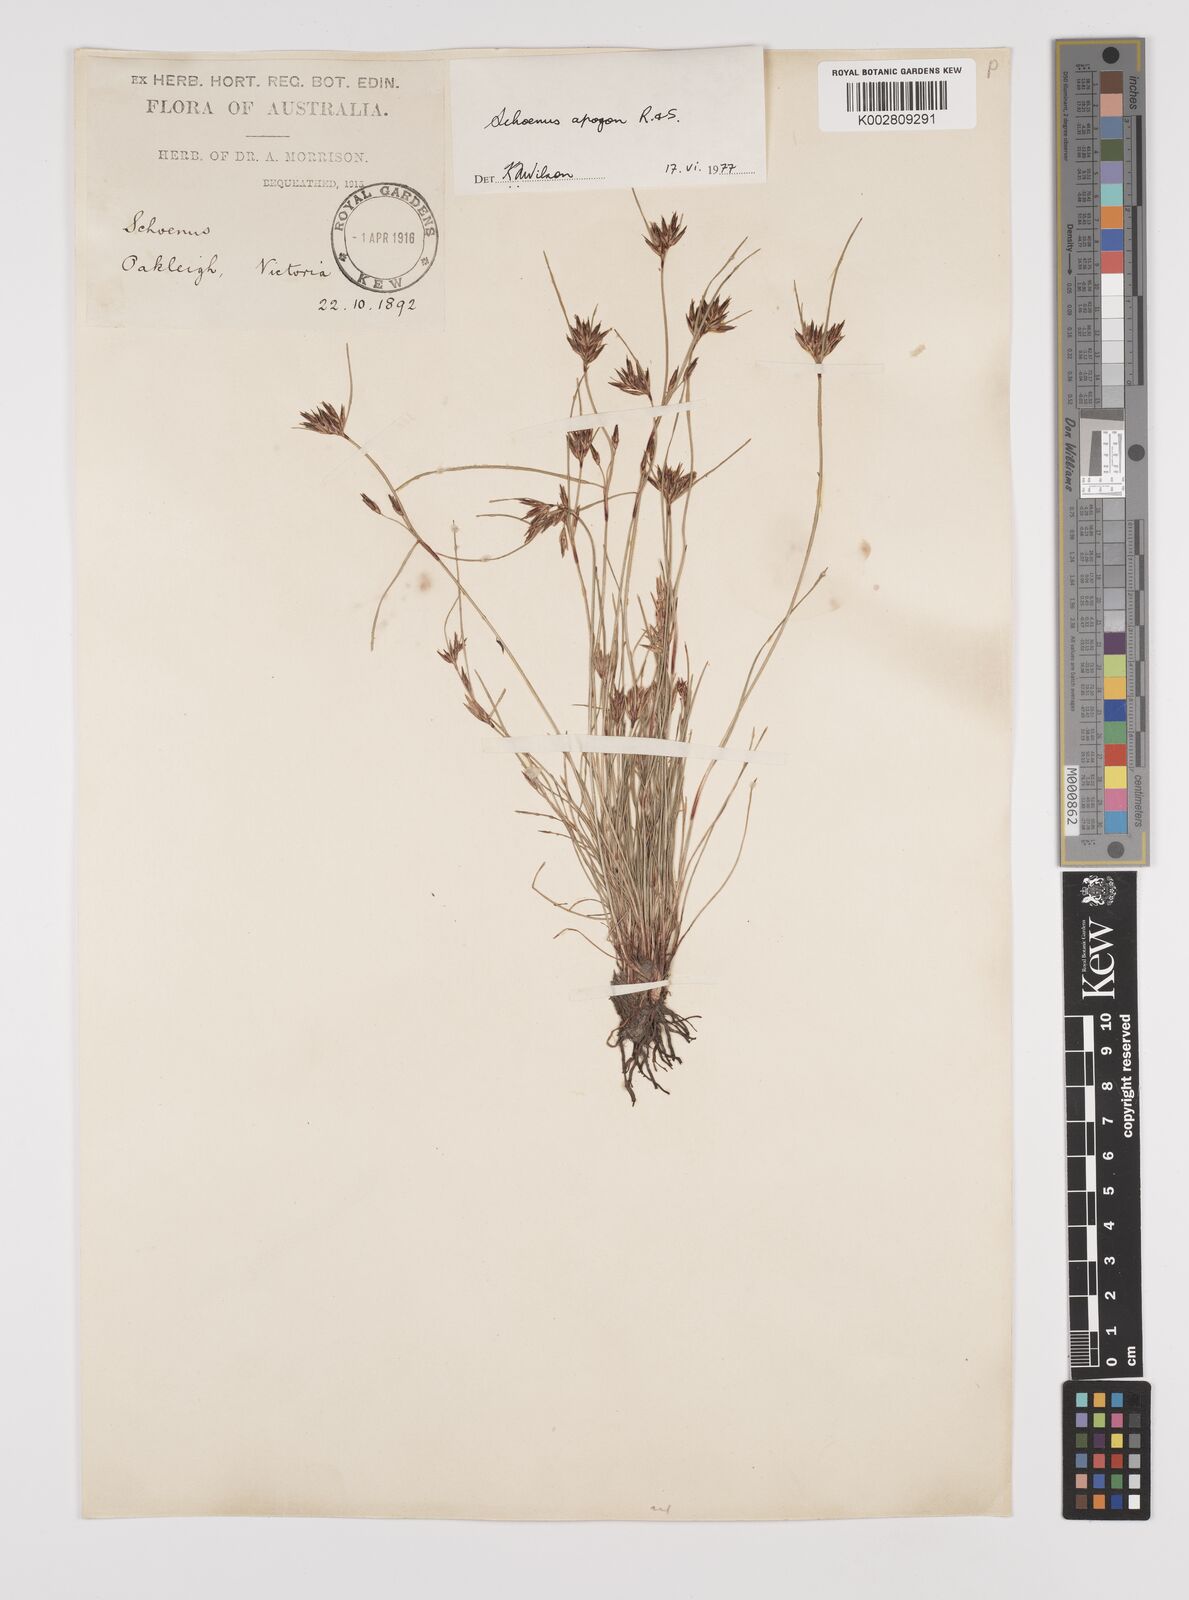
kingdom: Plantae
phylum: Tracheophyta
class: Liliopsida
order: Poales
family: Cyperaceae
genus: Schoenus
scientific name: Schoenus apogon
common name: Smooth bogrush
